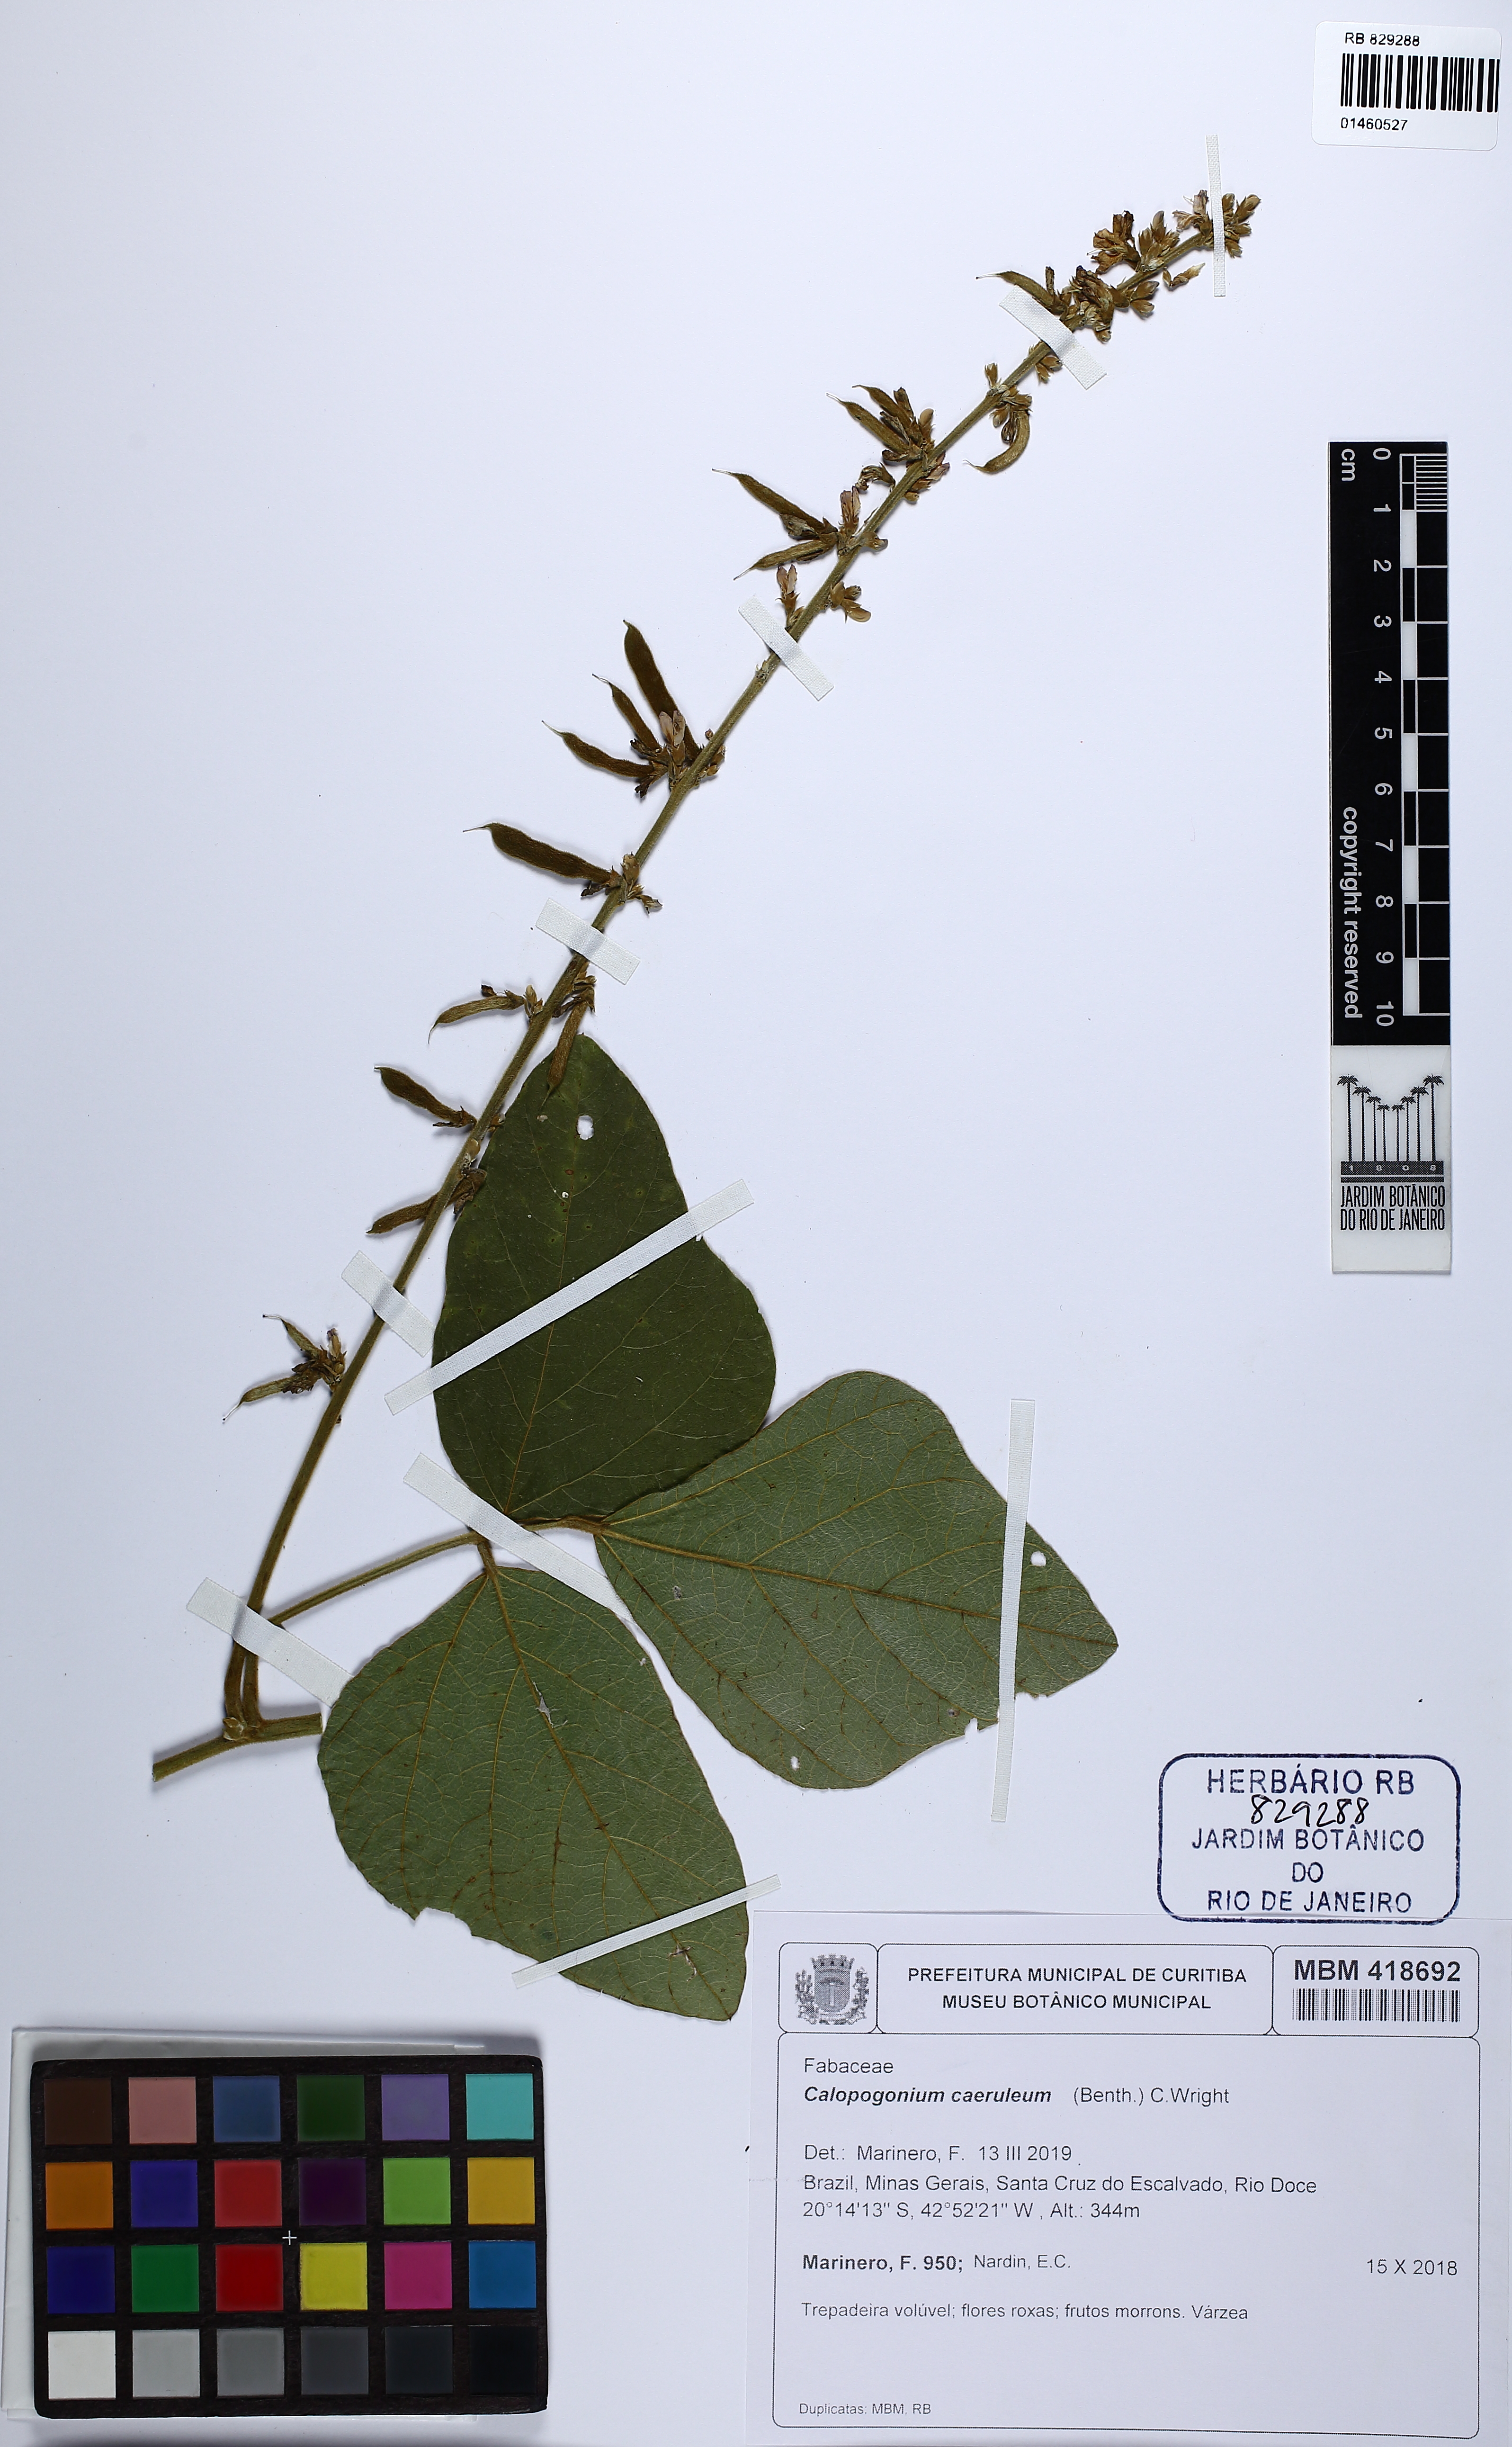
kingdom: Plantae
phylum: Tracheophyta
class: Magnoliopsida
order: Fabales
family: Fabaceae
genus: Calopogonium
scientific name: Calopogonium caeruleum
